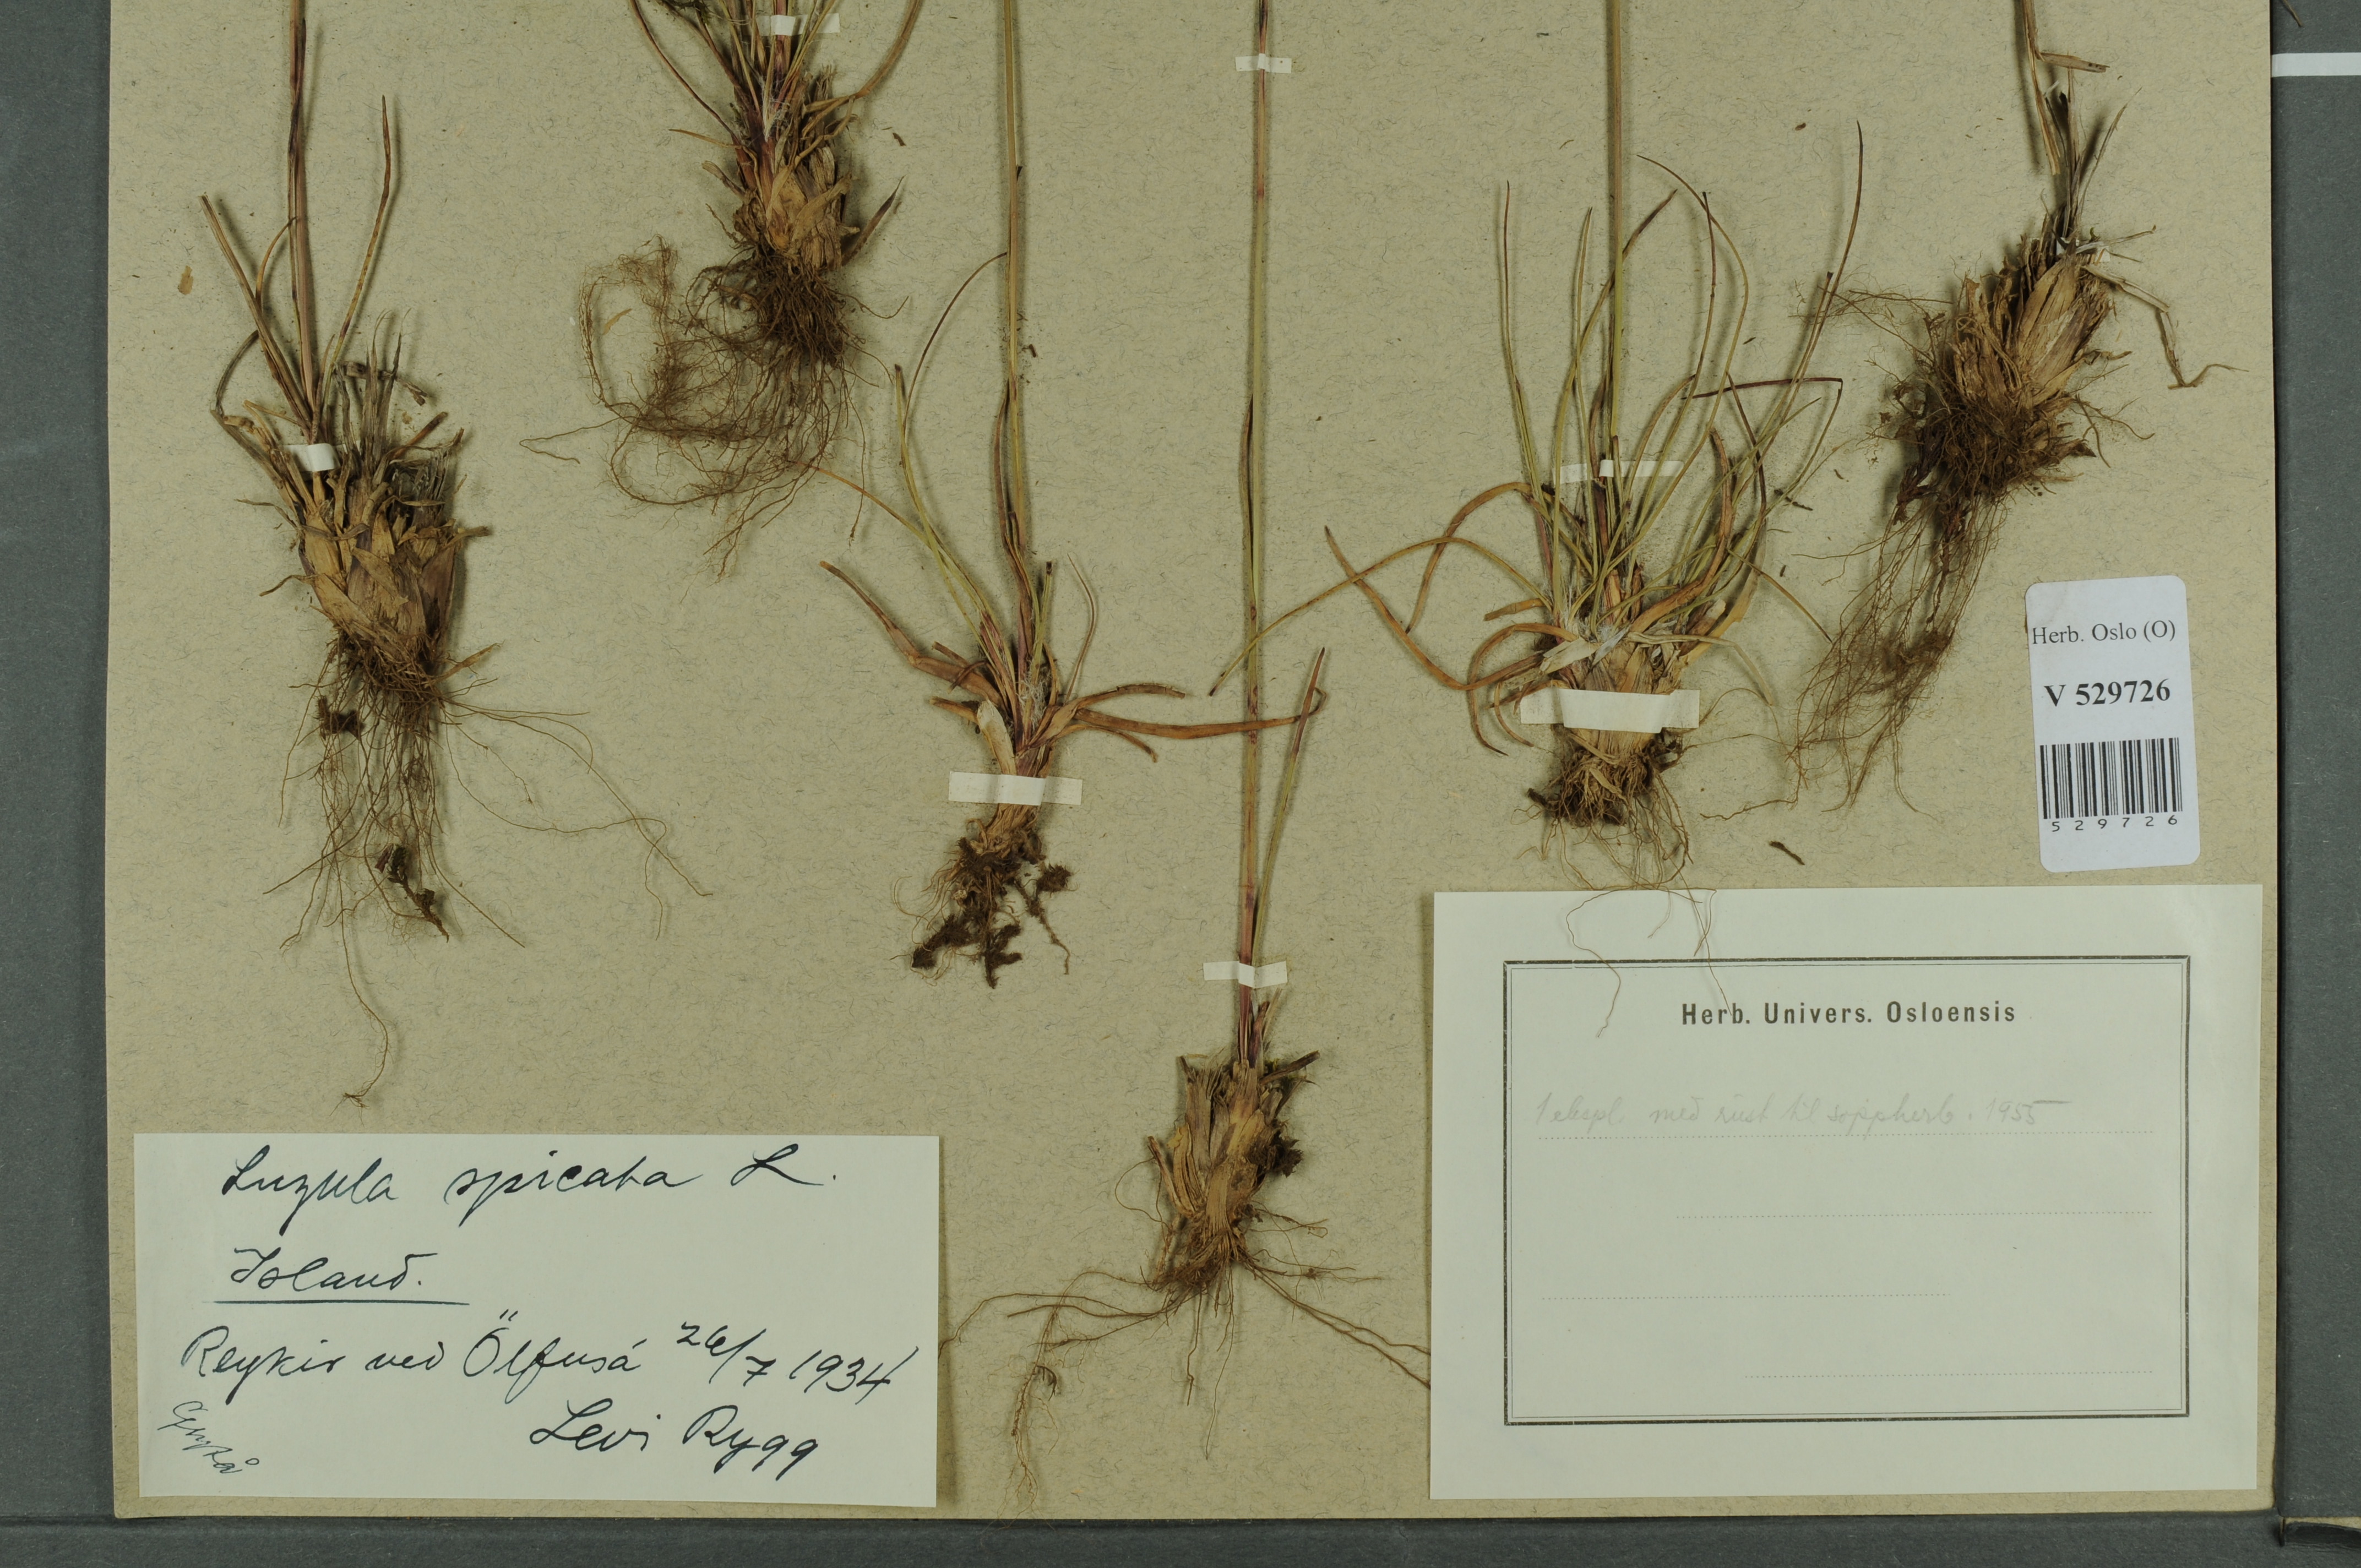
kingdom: Plantae
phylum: Tracheophyta
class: Liliopsida
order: Poales
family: Juncaceae
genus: Luzula
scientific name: Luzula spicata
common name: Spiked wood-rush
